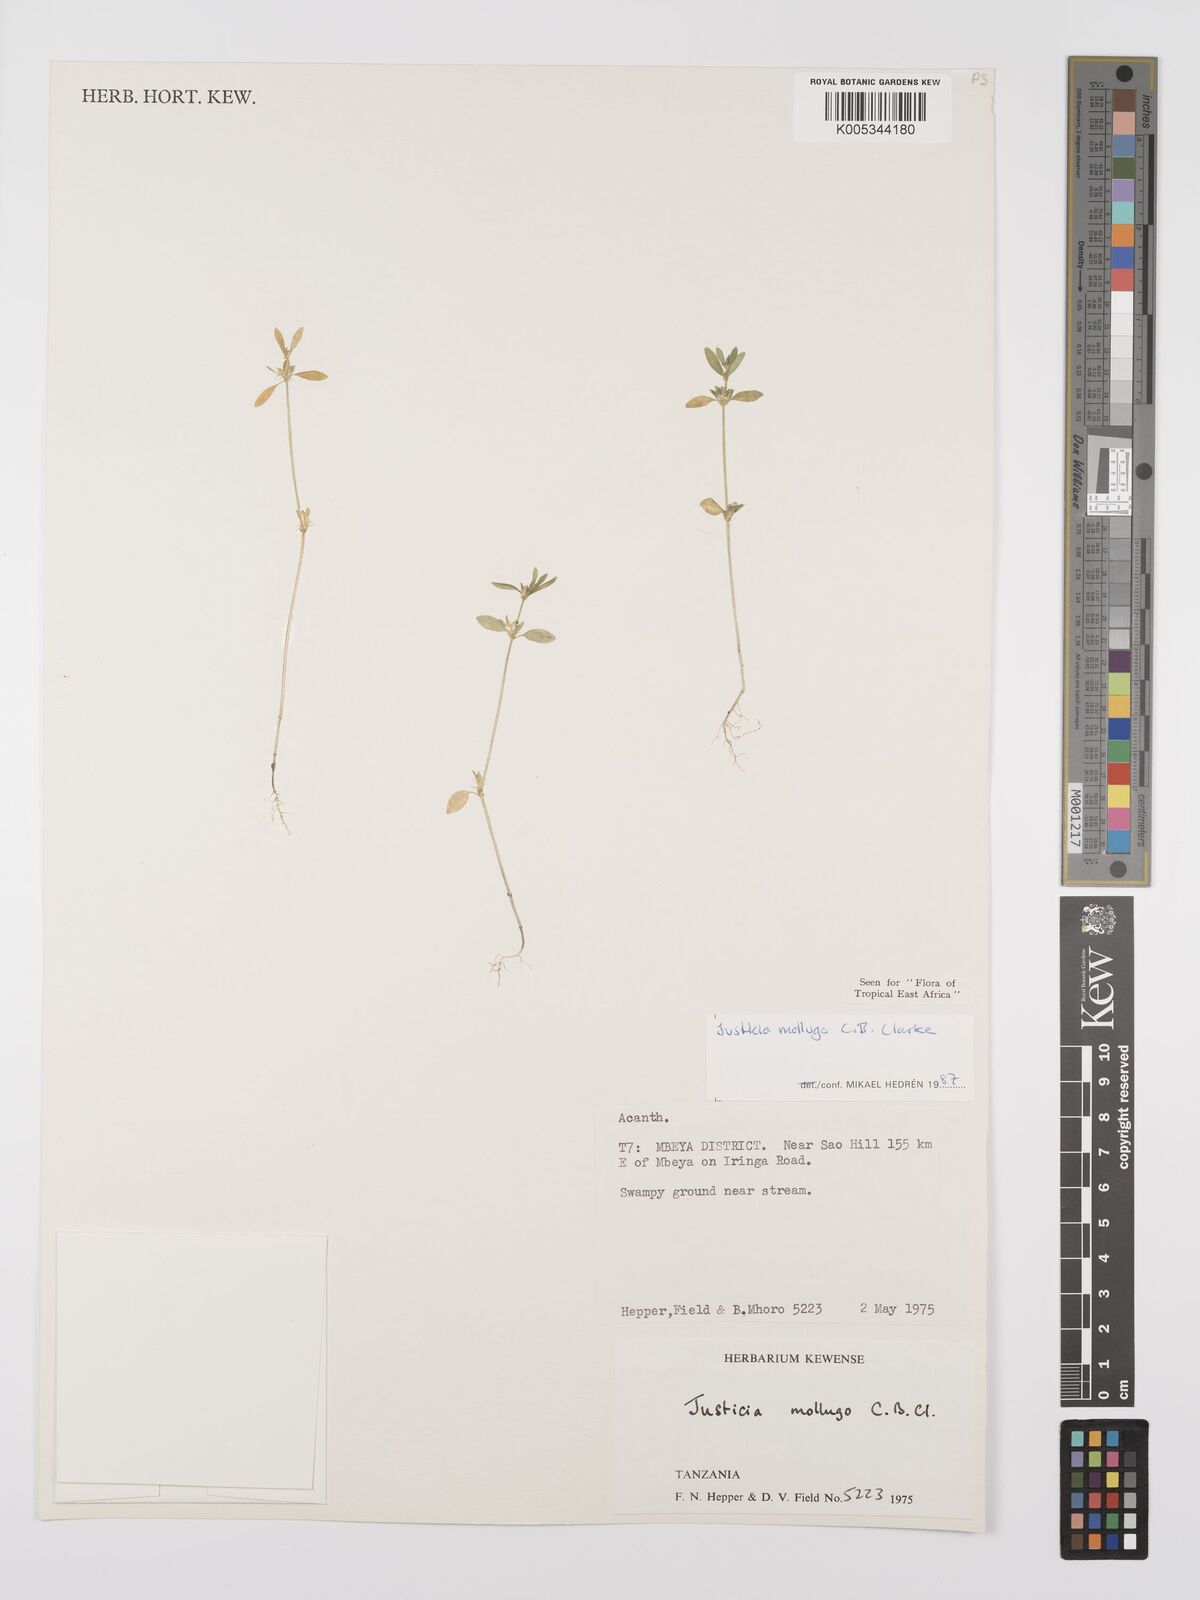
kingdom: Plantae
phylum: Tracheophyta
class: Magnoliopsida
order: Lamiales
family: Acanthaceae
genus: Justicia
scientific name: Justicia mollugo
